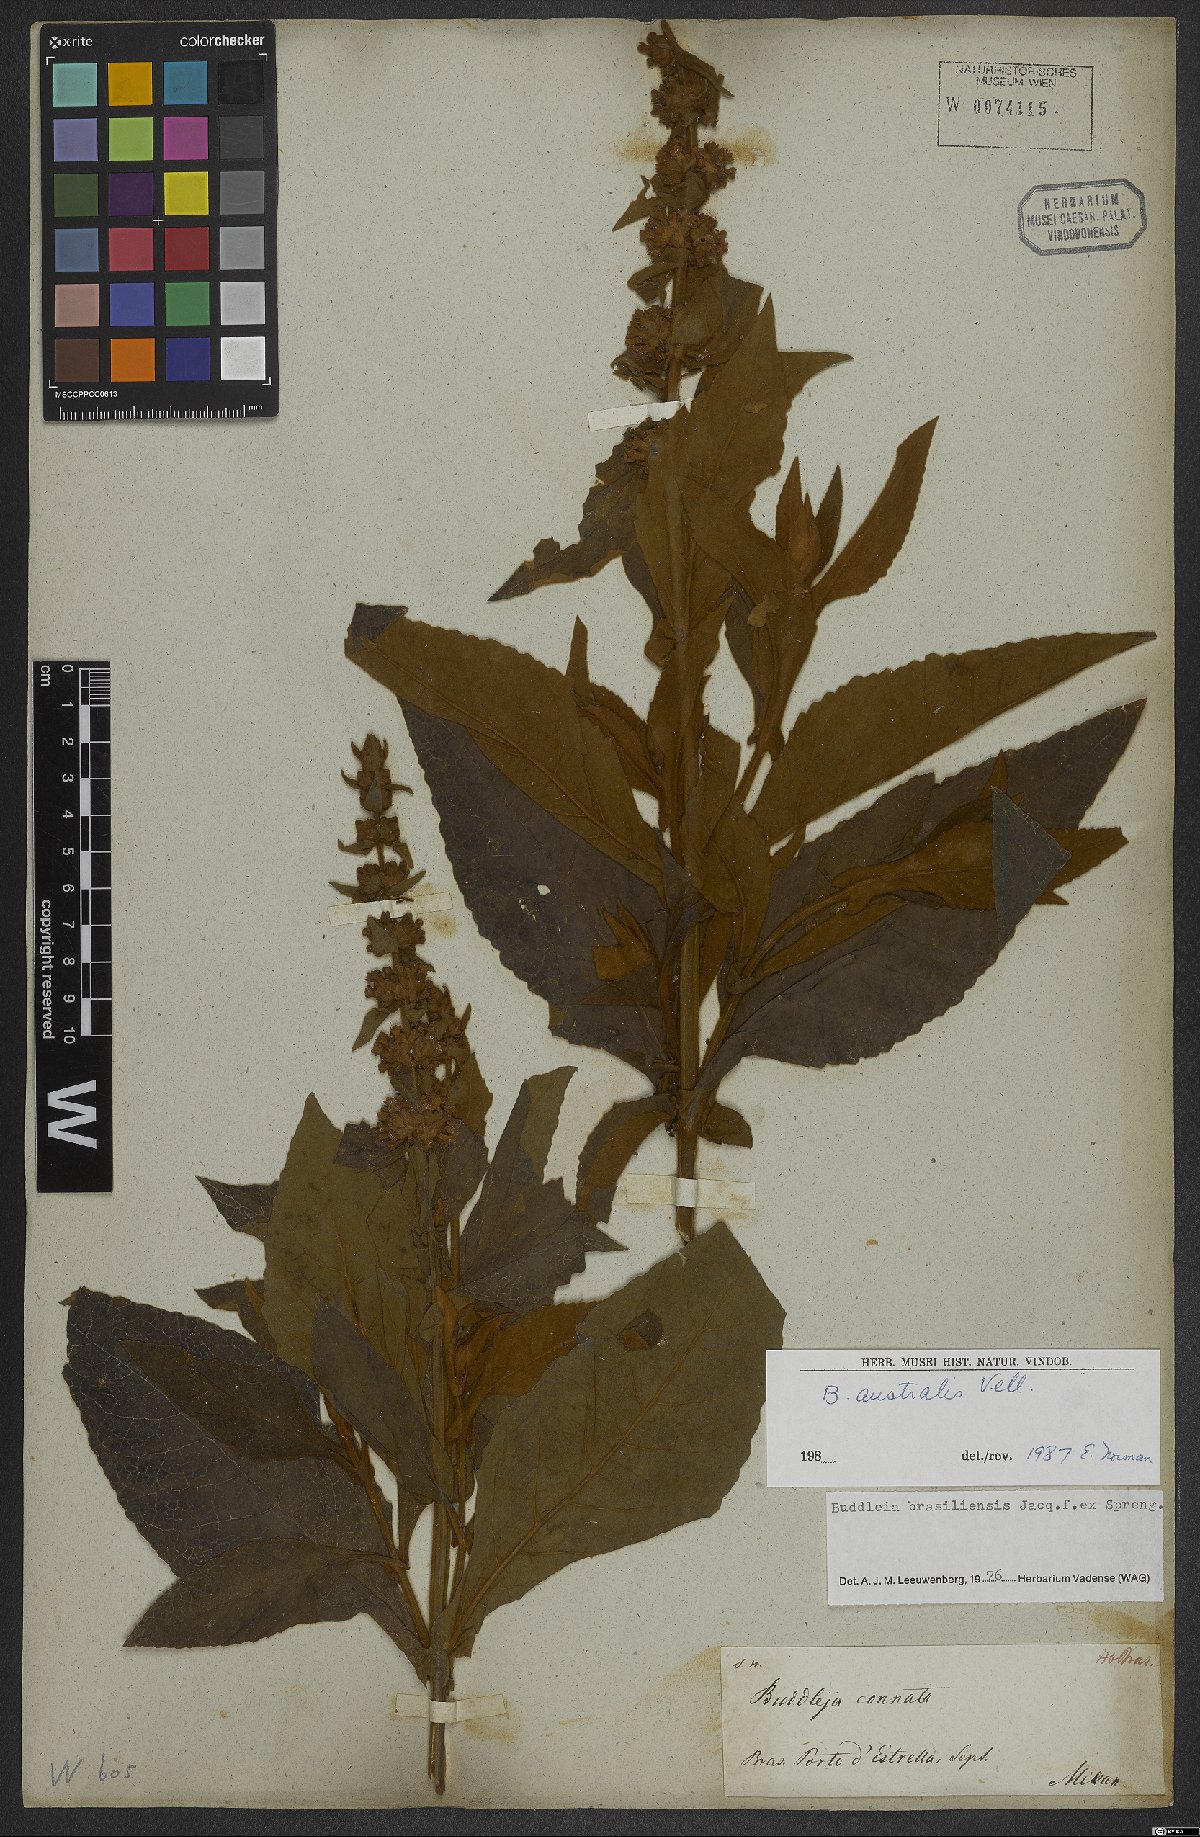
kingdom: Plantae
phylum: Tracheophyta
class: Magnoliopsida
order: Lamiales
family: Scrophulariaceae
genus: Buddleja
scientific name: Buddleja stachyoides
